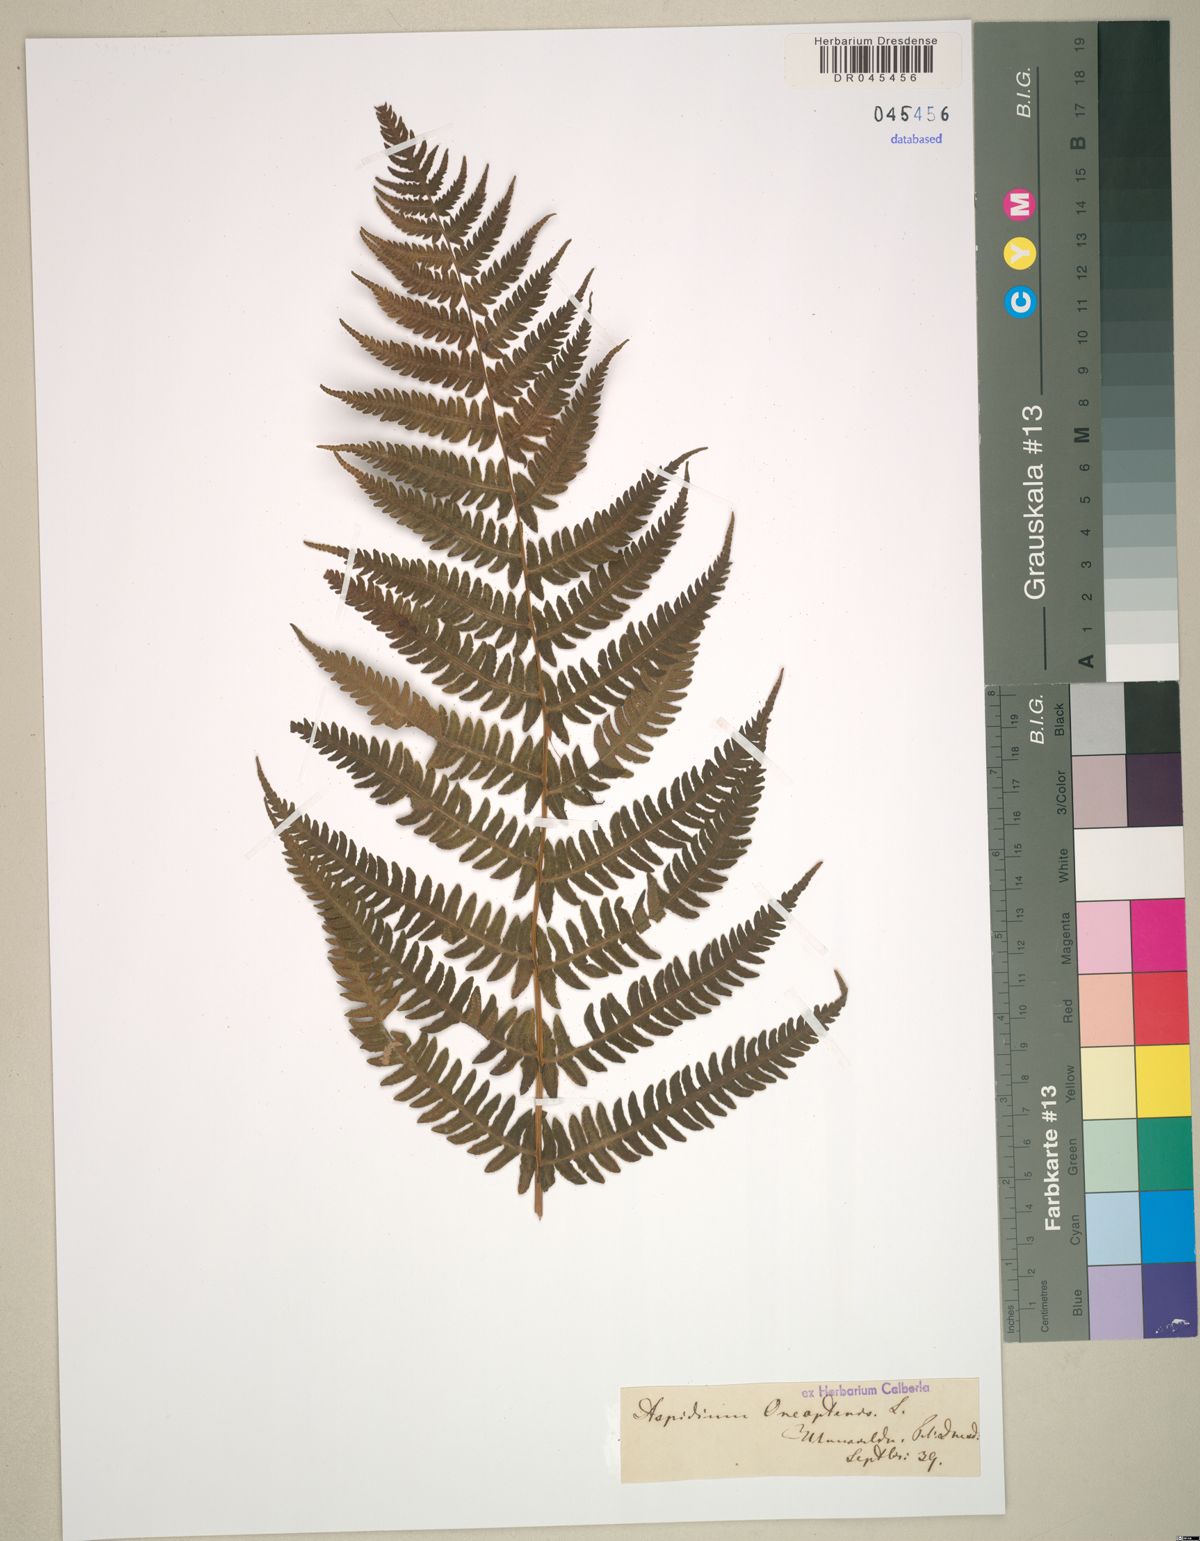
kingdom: Plantae
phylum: Tracheophyta
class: Polypodiopsida
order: Polypodiales
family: Thelypteridaceae
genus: Oreopteris
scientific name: Oreopteris limbosperma
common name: Lemon-scented fern
